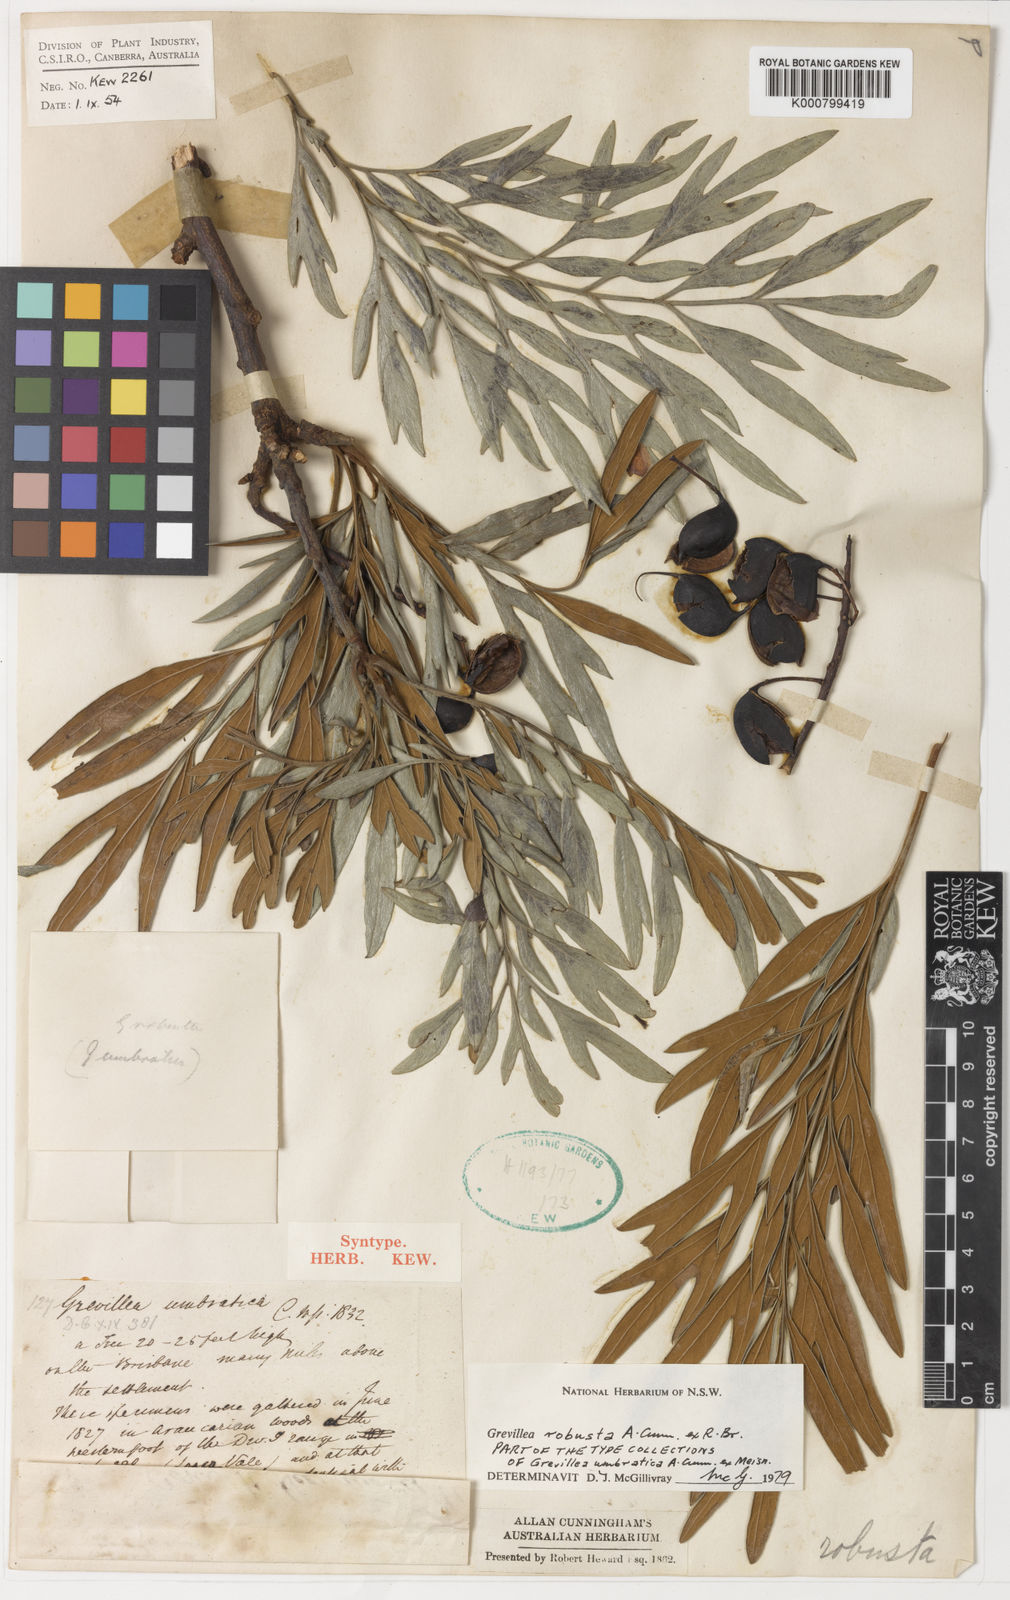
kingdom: Plantae
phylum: Tracheophyta
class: Magnoliopsida
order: Proteales
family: Proteaceae
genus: Grevillea
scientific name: Grevillea robusta
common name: Silkoak
